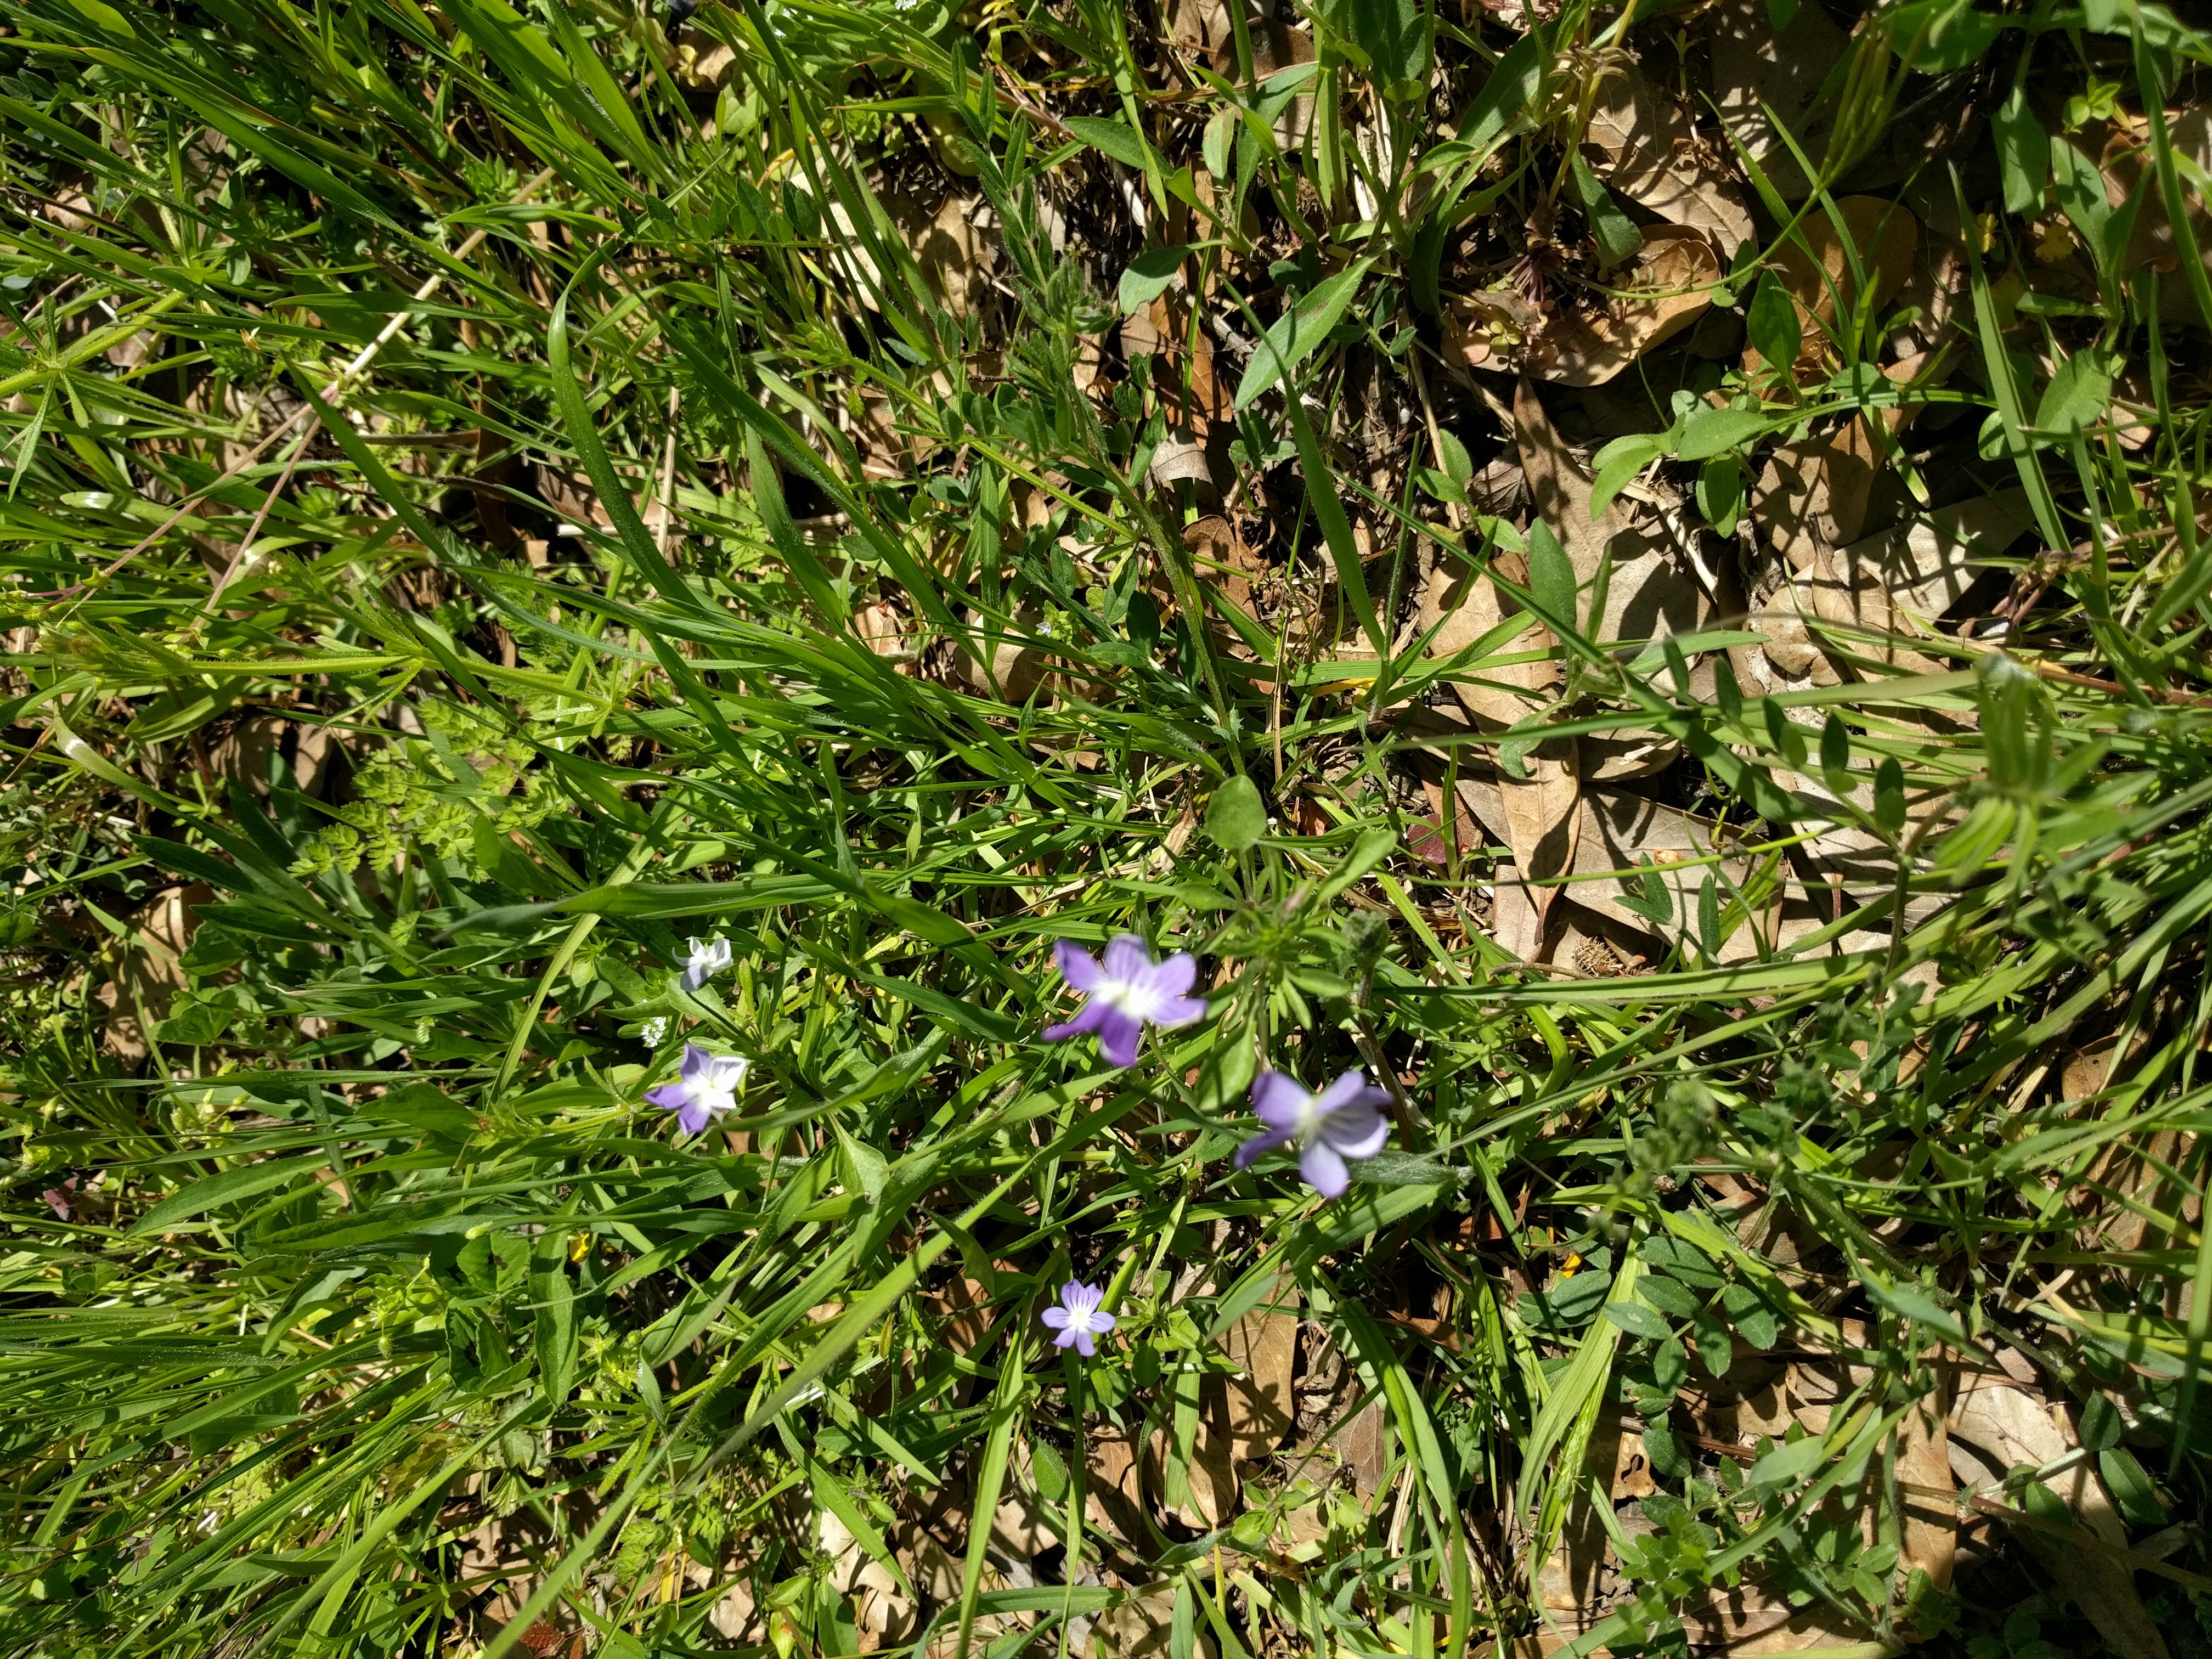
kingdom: Plantae
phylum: Tracheophyta
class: Magnoliopsida
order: Malpighiales
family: Violaceae
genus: Viola
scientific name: Viola
